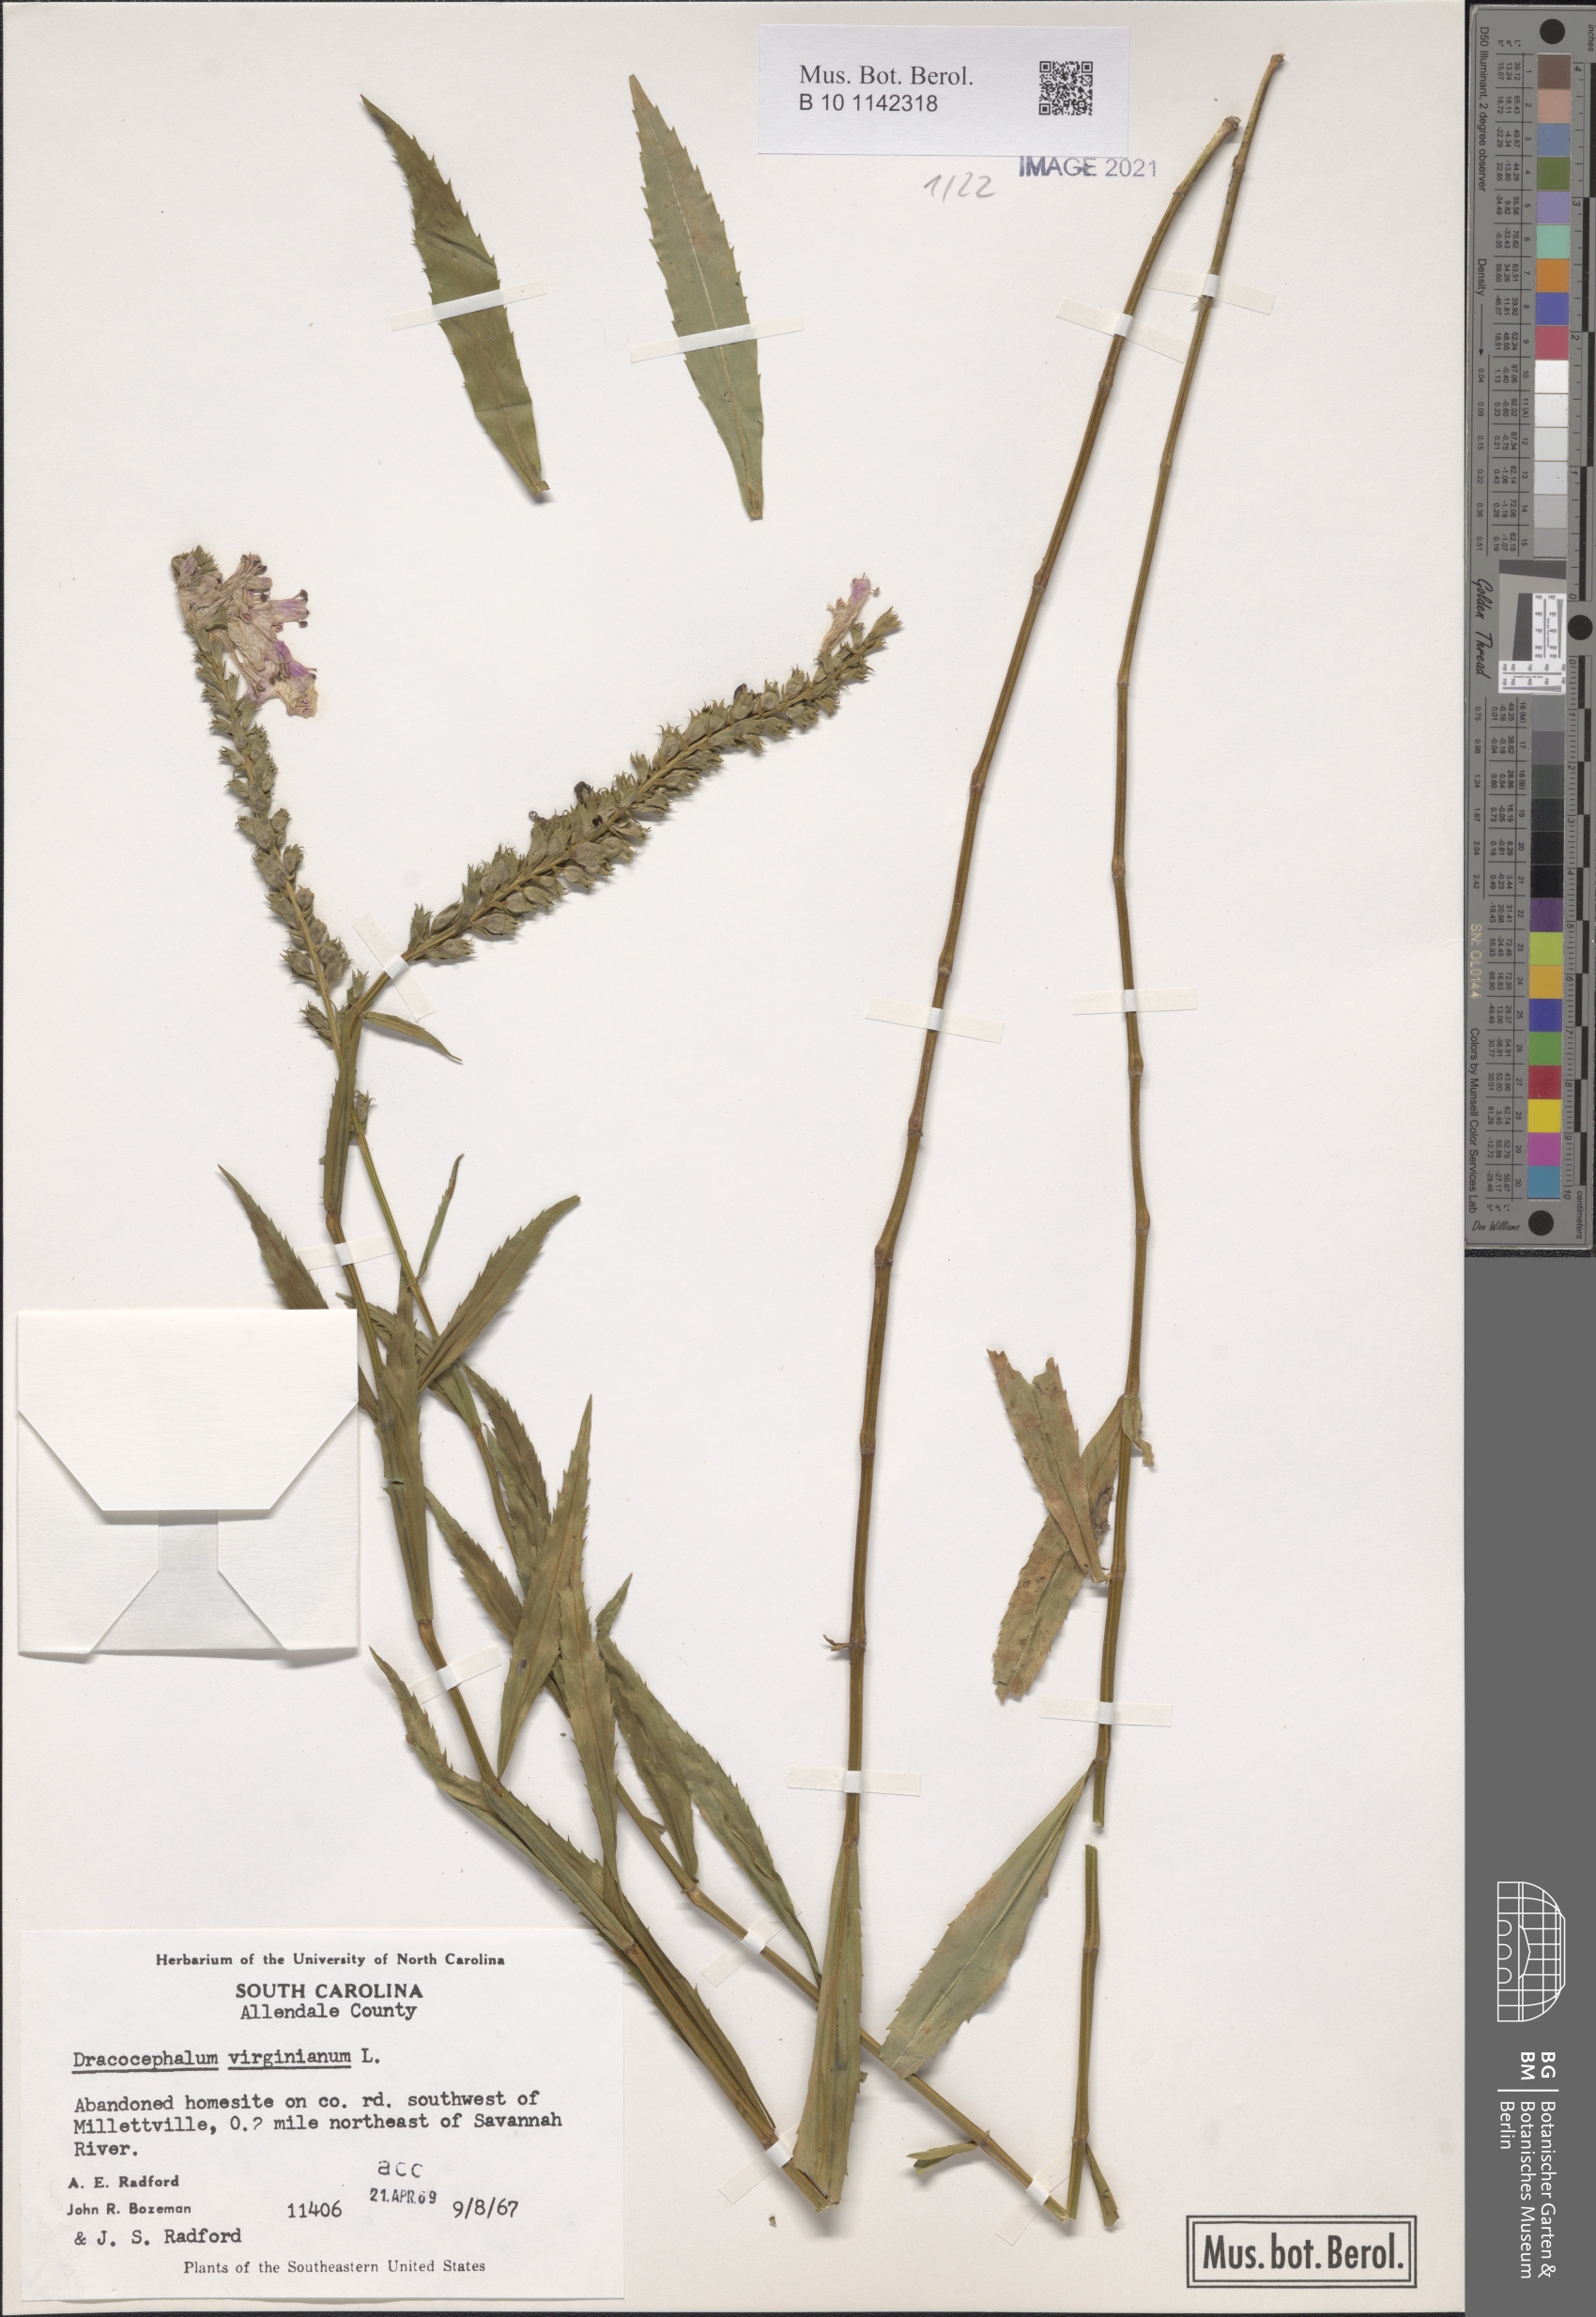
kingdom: Plantae
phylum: Tracheophyta
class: Magnoliopsida
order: Lamiales
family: Lamiaceae
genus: Physostegia
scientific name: Physostegia virginiana
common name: Obedient-plant
